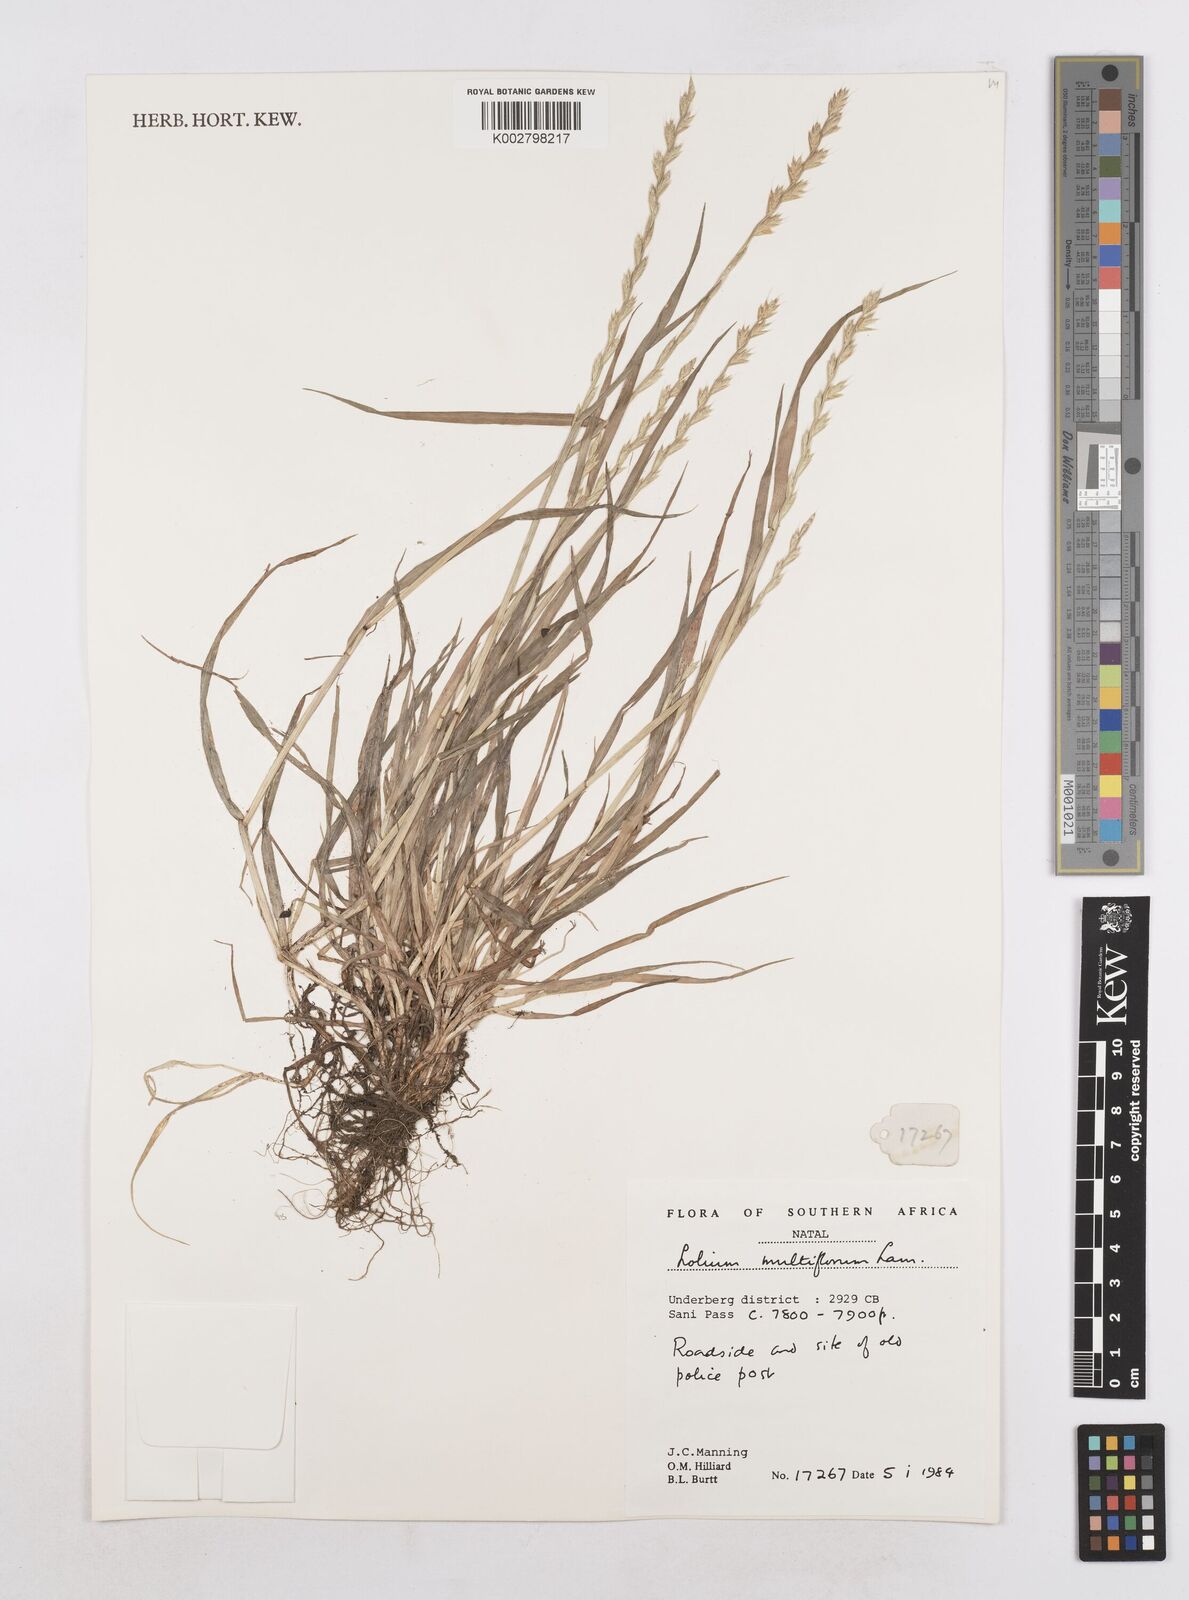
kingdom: Plantae
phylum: Tracheophyta
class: Liliopsida
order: Poales
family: Poaceae
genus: Lolium
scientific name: Lolium multiflorum
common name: Annual ryegrass
